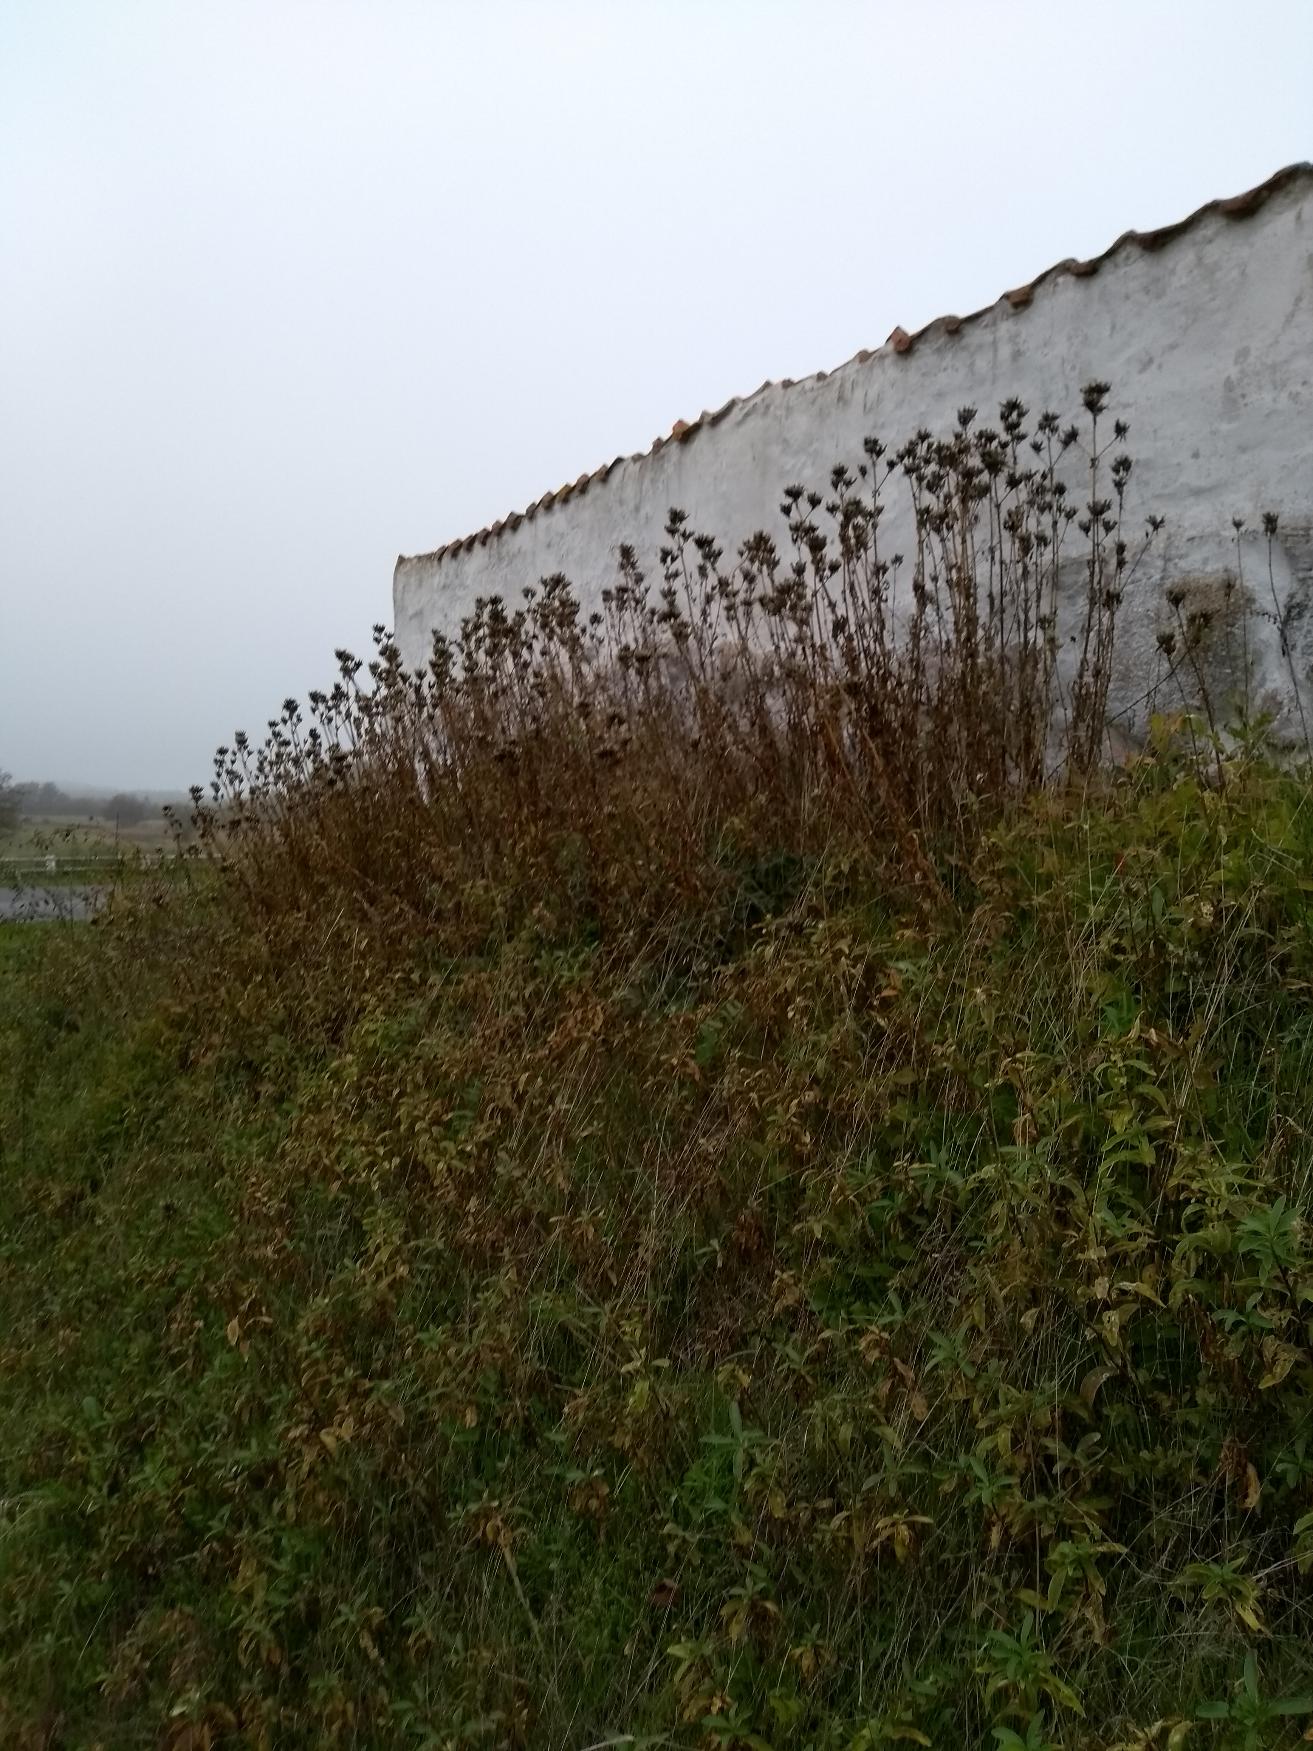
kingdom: Plantae
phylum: Tracheophyta
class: Magnoliopsida
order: Caryophyllales
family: Caryophyllaceae
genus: Saponaria
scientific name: Saponaria officinalis
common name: Sæbeurt
